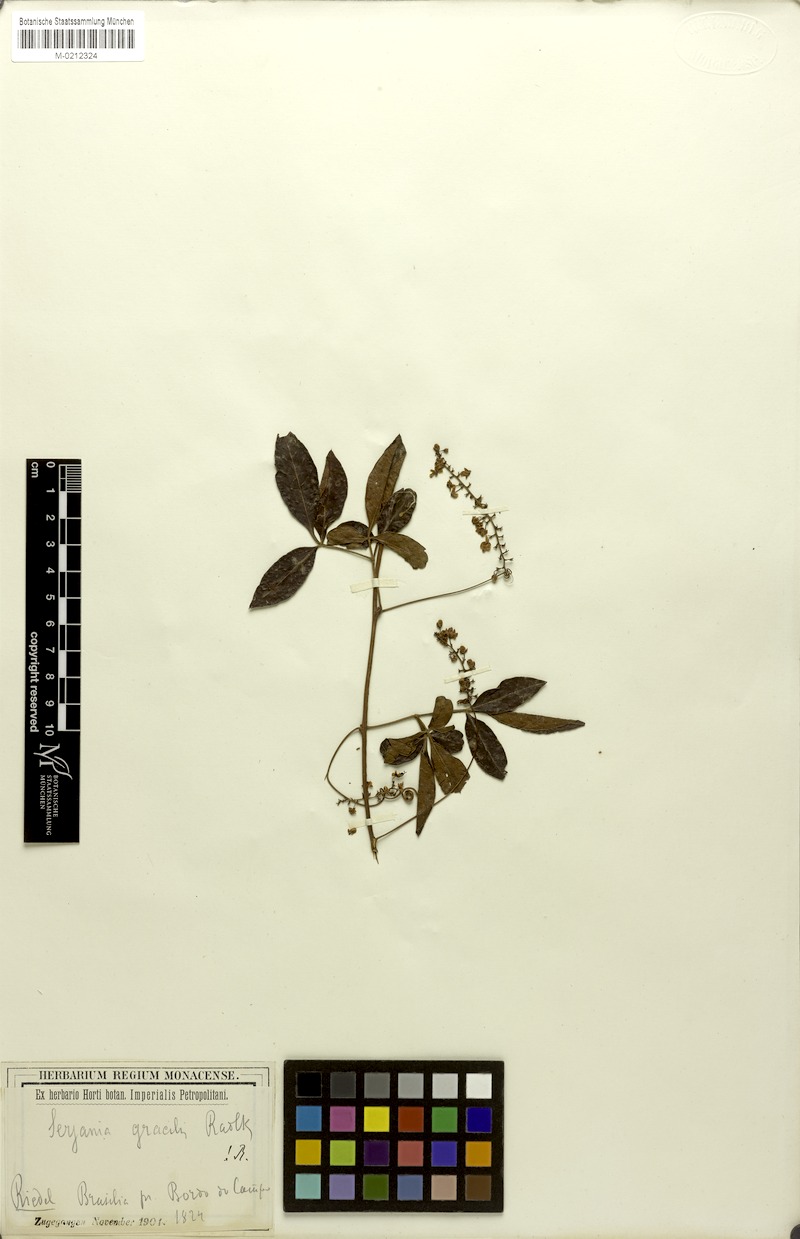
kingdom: Plantae
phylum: Tracheophyta
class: Magnoliopsida
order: Sapindales
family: Sapindaceae
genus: Serjania
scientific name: Serjania gracilis
